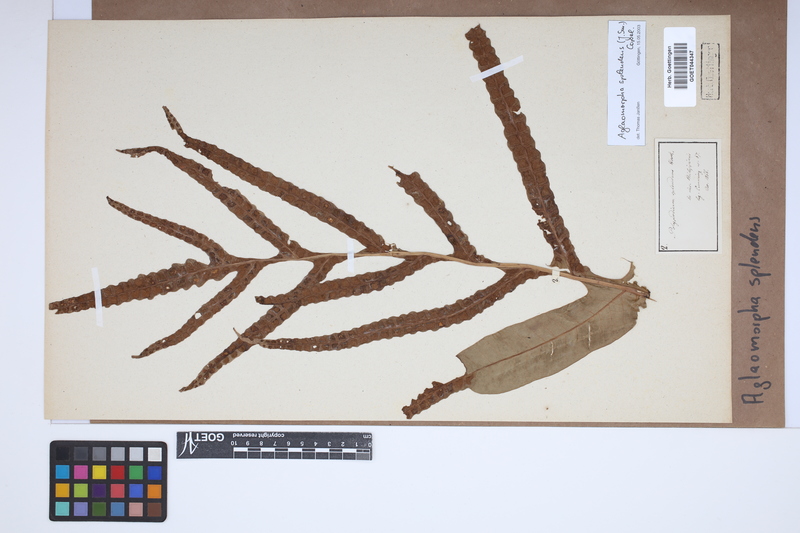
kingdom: Plantae
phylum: Tracheophyta
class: Polypodiopsida
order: Polypodiales
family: Polypodiaceae
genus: Drynaria
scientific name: Drynaria meyeniana
